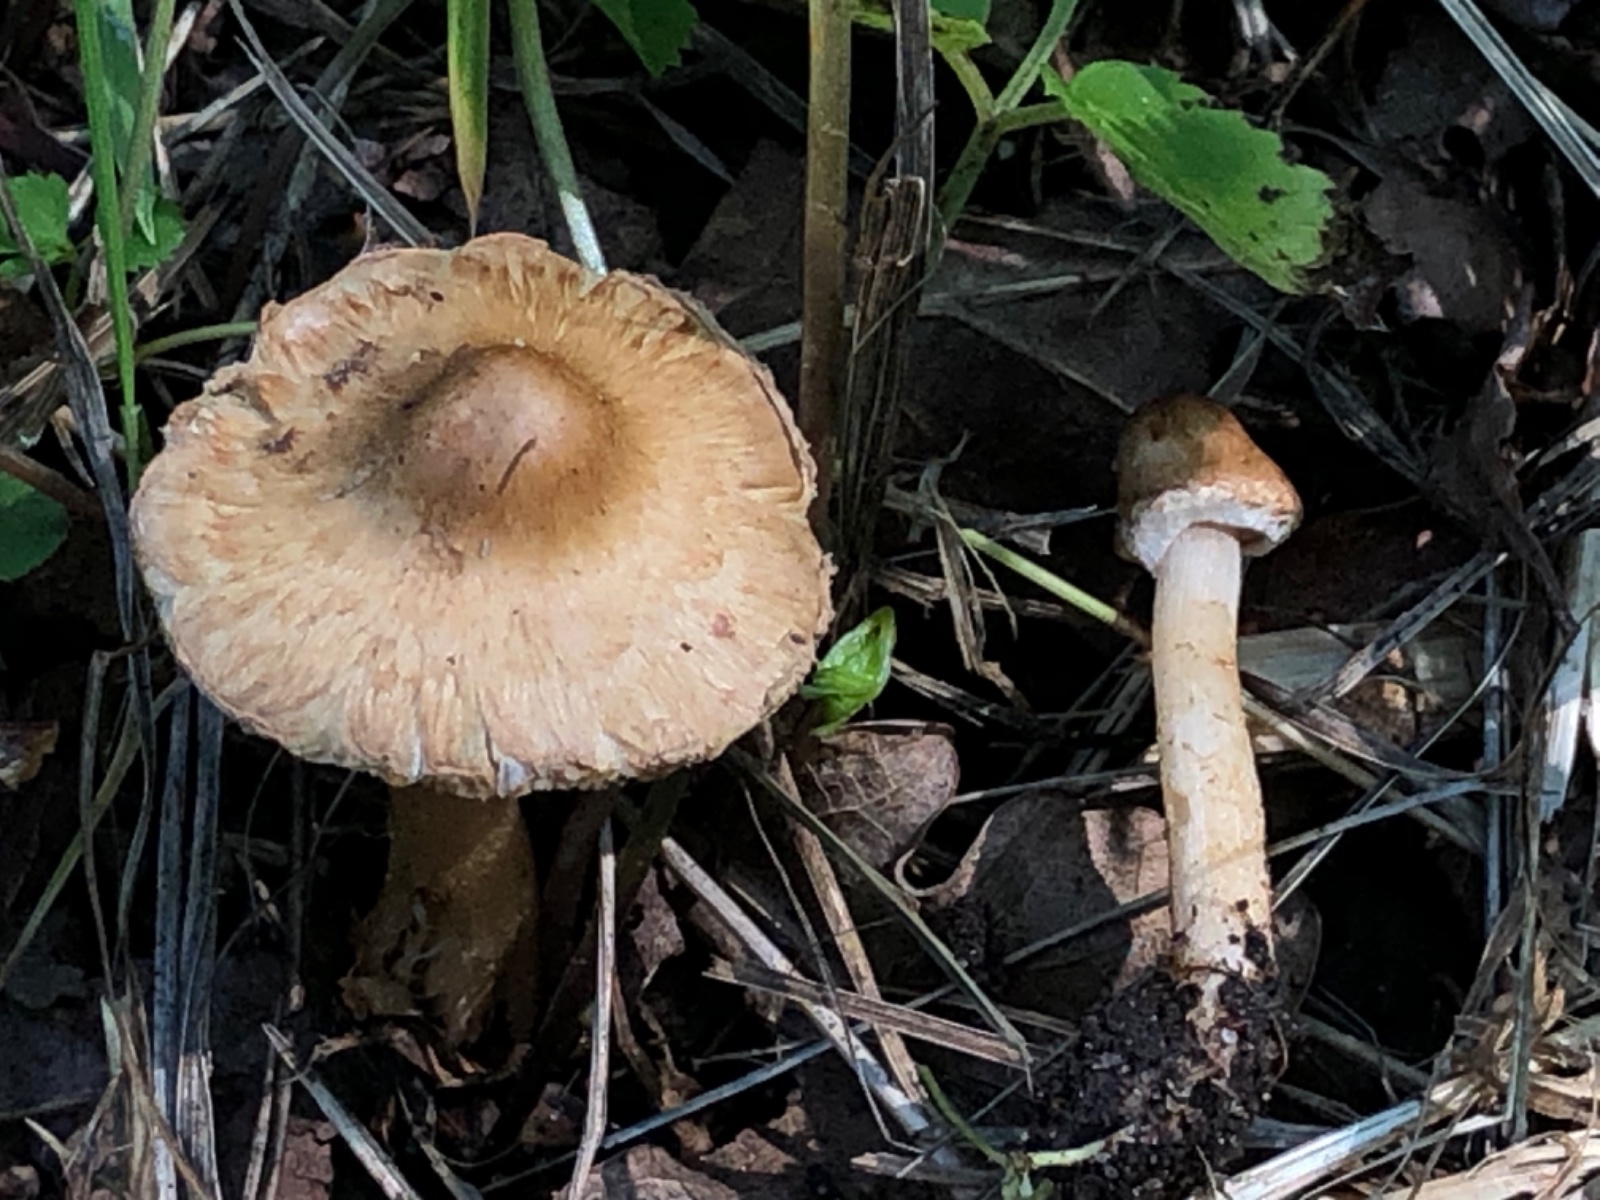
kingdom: Fungi
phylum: Basidiomycota
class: Agaricomycetes
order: Agaricales
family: Inocybaceae
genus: Inocybe
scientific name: Inocybe
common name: trævlhat
